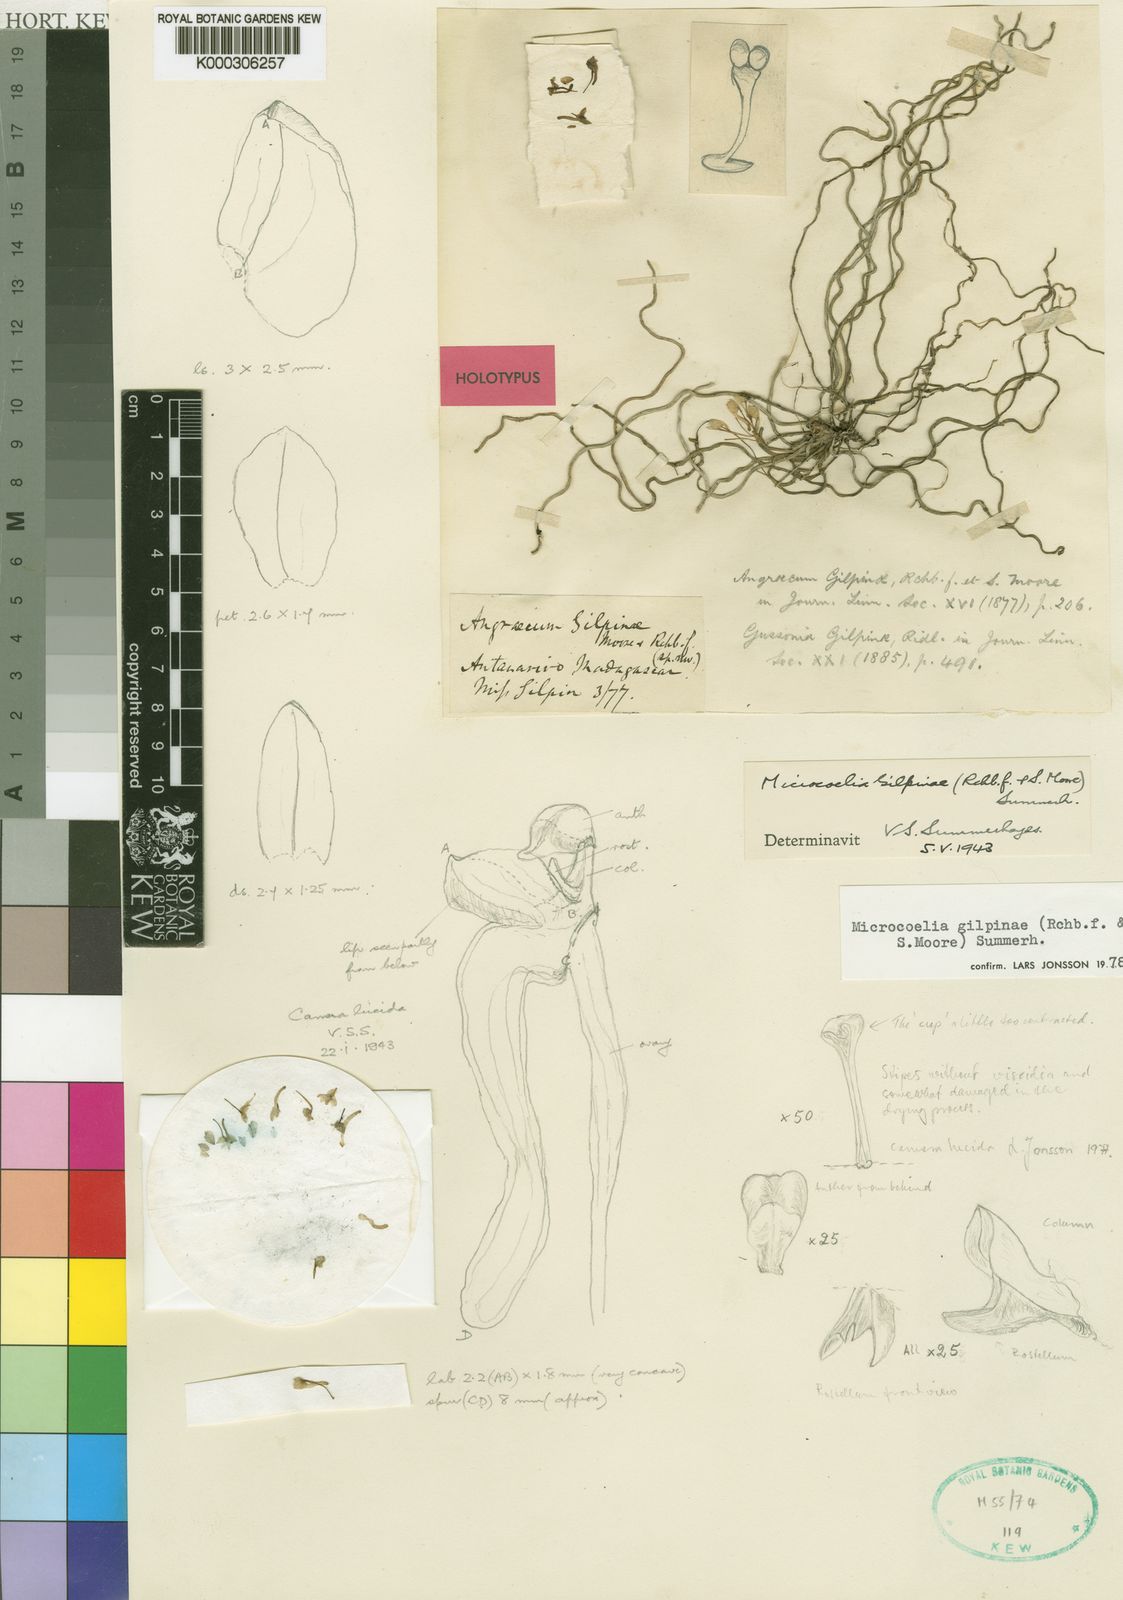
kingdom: Plantae
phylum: Tracheophyta
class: Liliopsida
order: Asparagales
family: Orchidaceae
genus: Microcoelia
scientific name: Microcoelia gilpiniae
